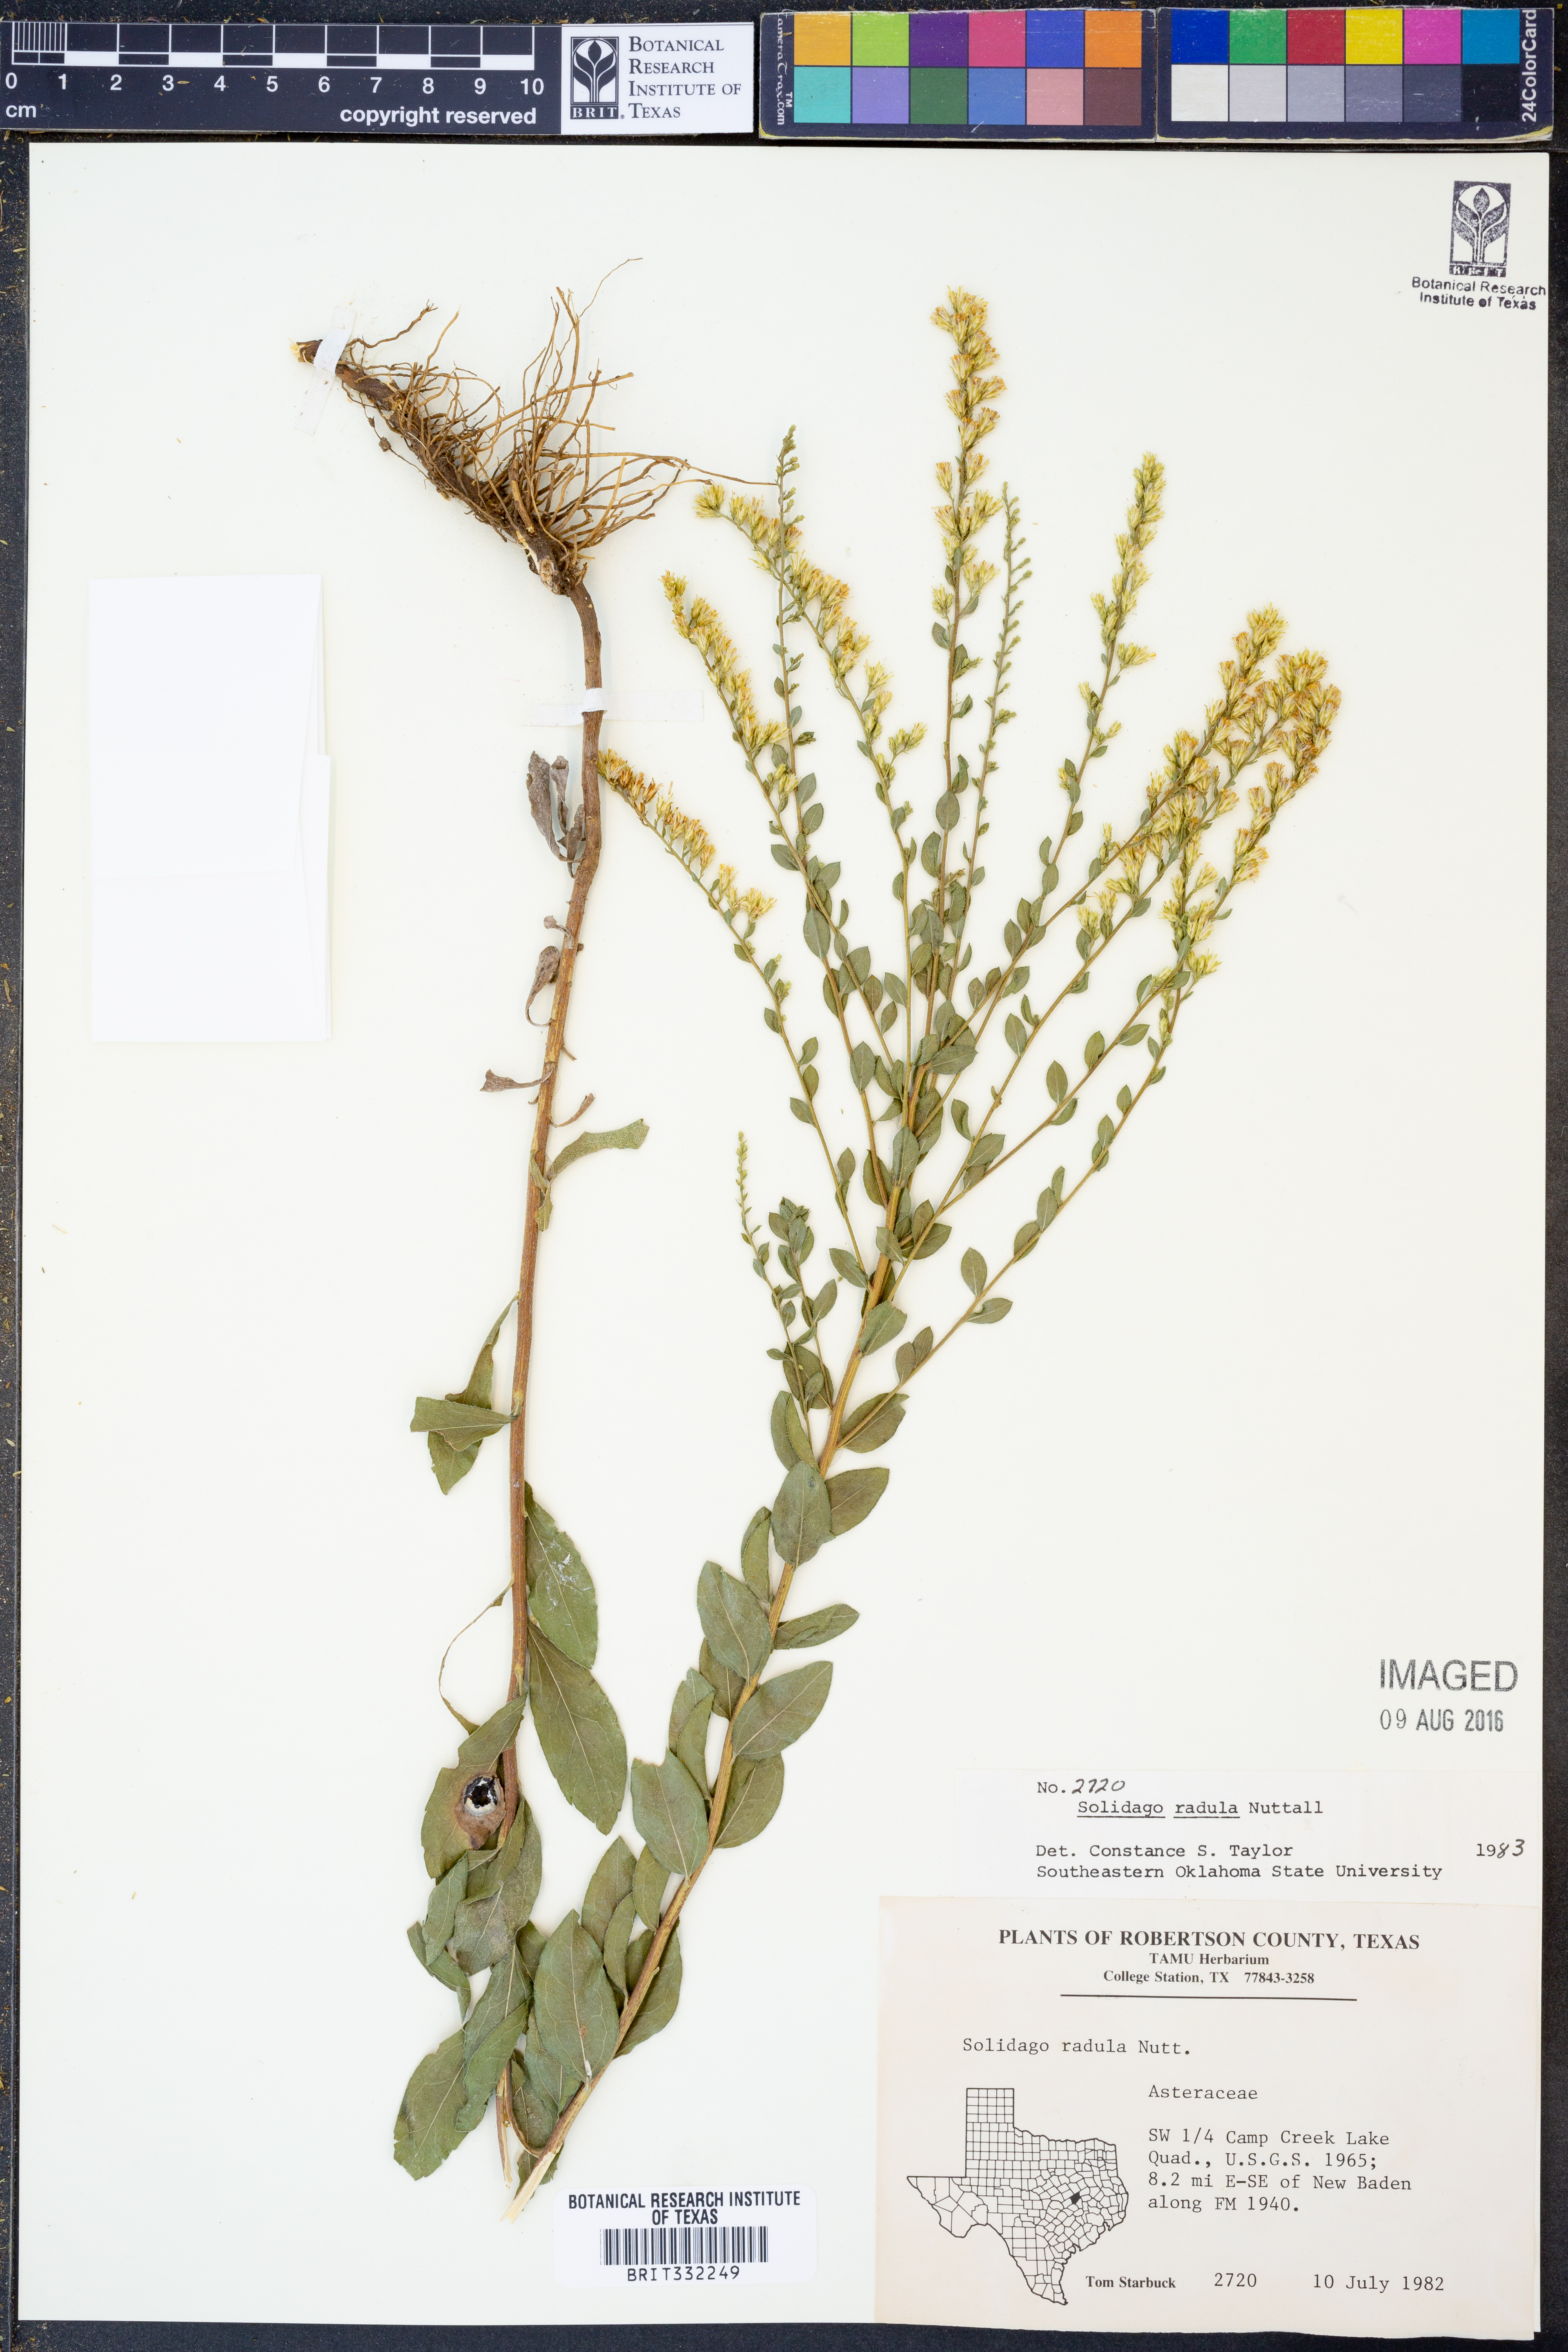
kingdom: Plantae
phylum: Tracheophyta
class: Magnoliopsida
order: Asterales
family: Asteraceae
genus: Solidago
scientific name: Solidago radula
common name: Western rough goldenrod
